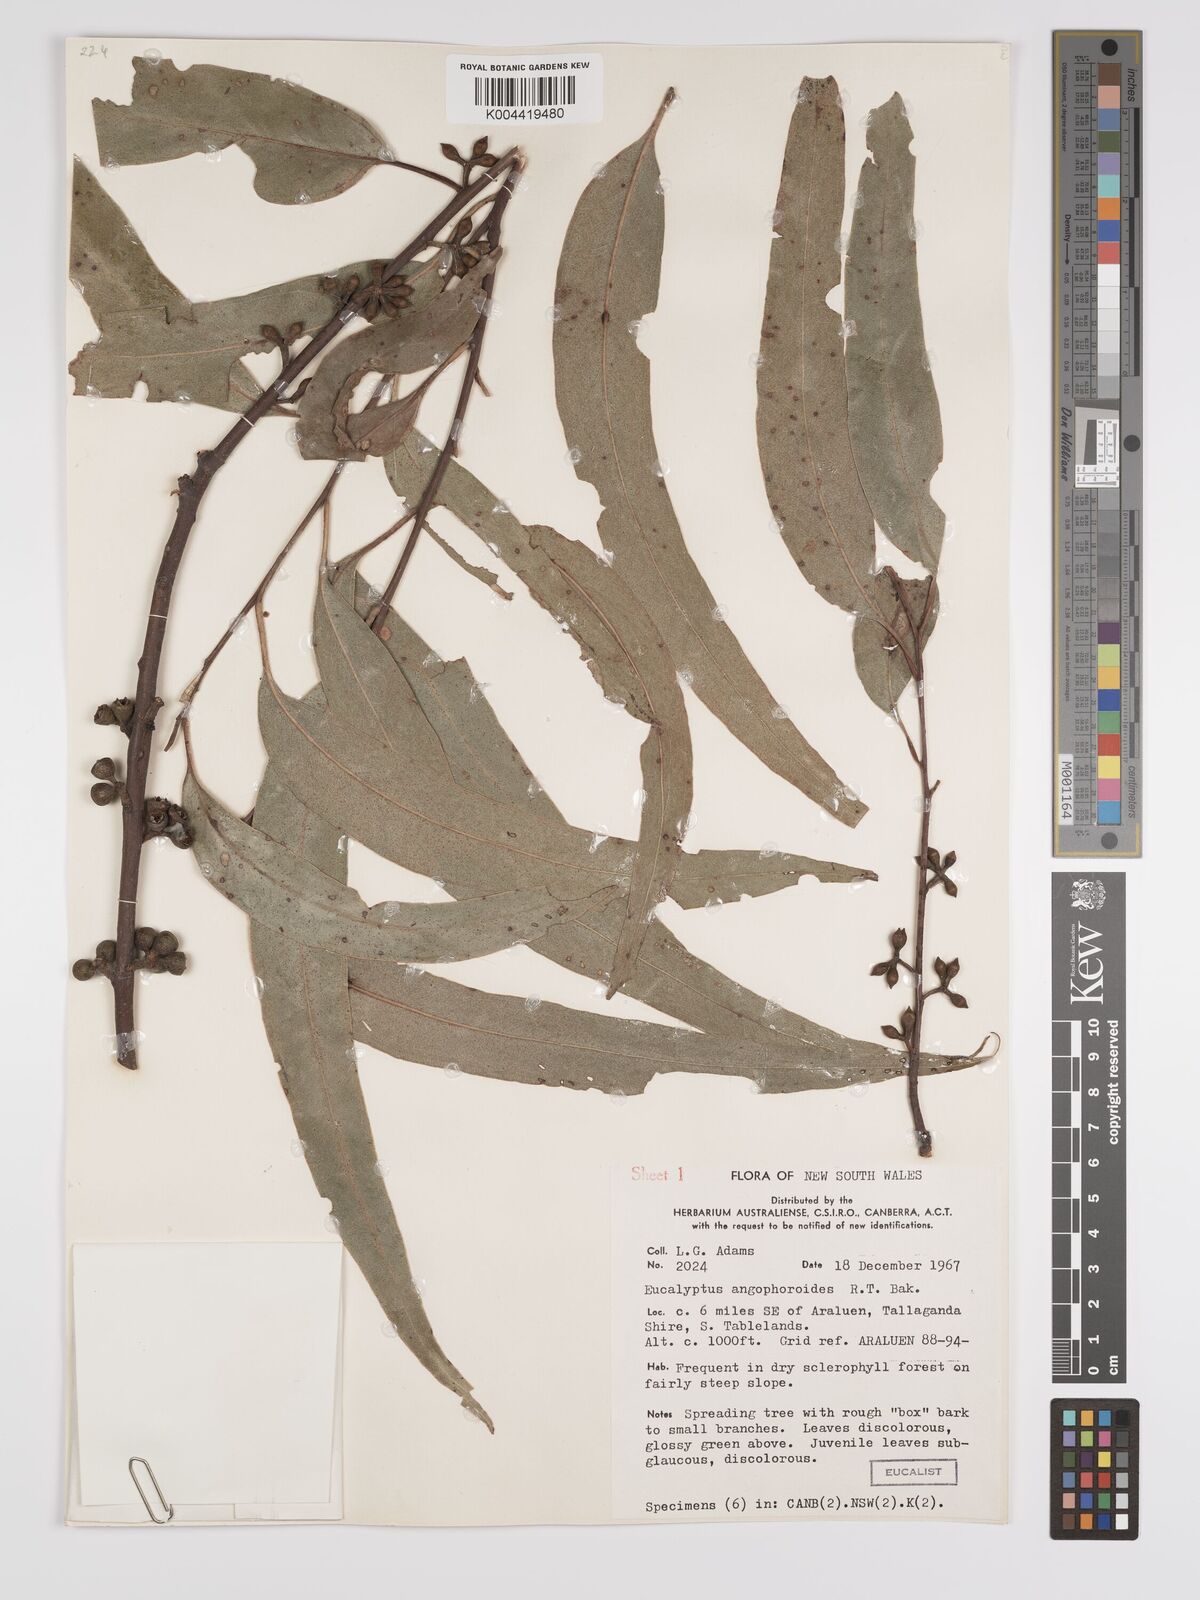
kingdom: Plantae
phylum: Tracheophyta
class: Magnoliopsida
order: Myrtales
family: Myrtaceae
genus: Eucalyptus
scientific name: Eucalyptus angophoroides
